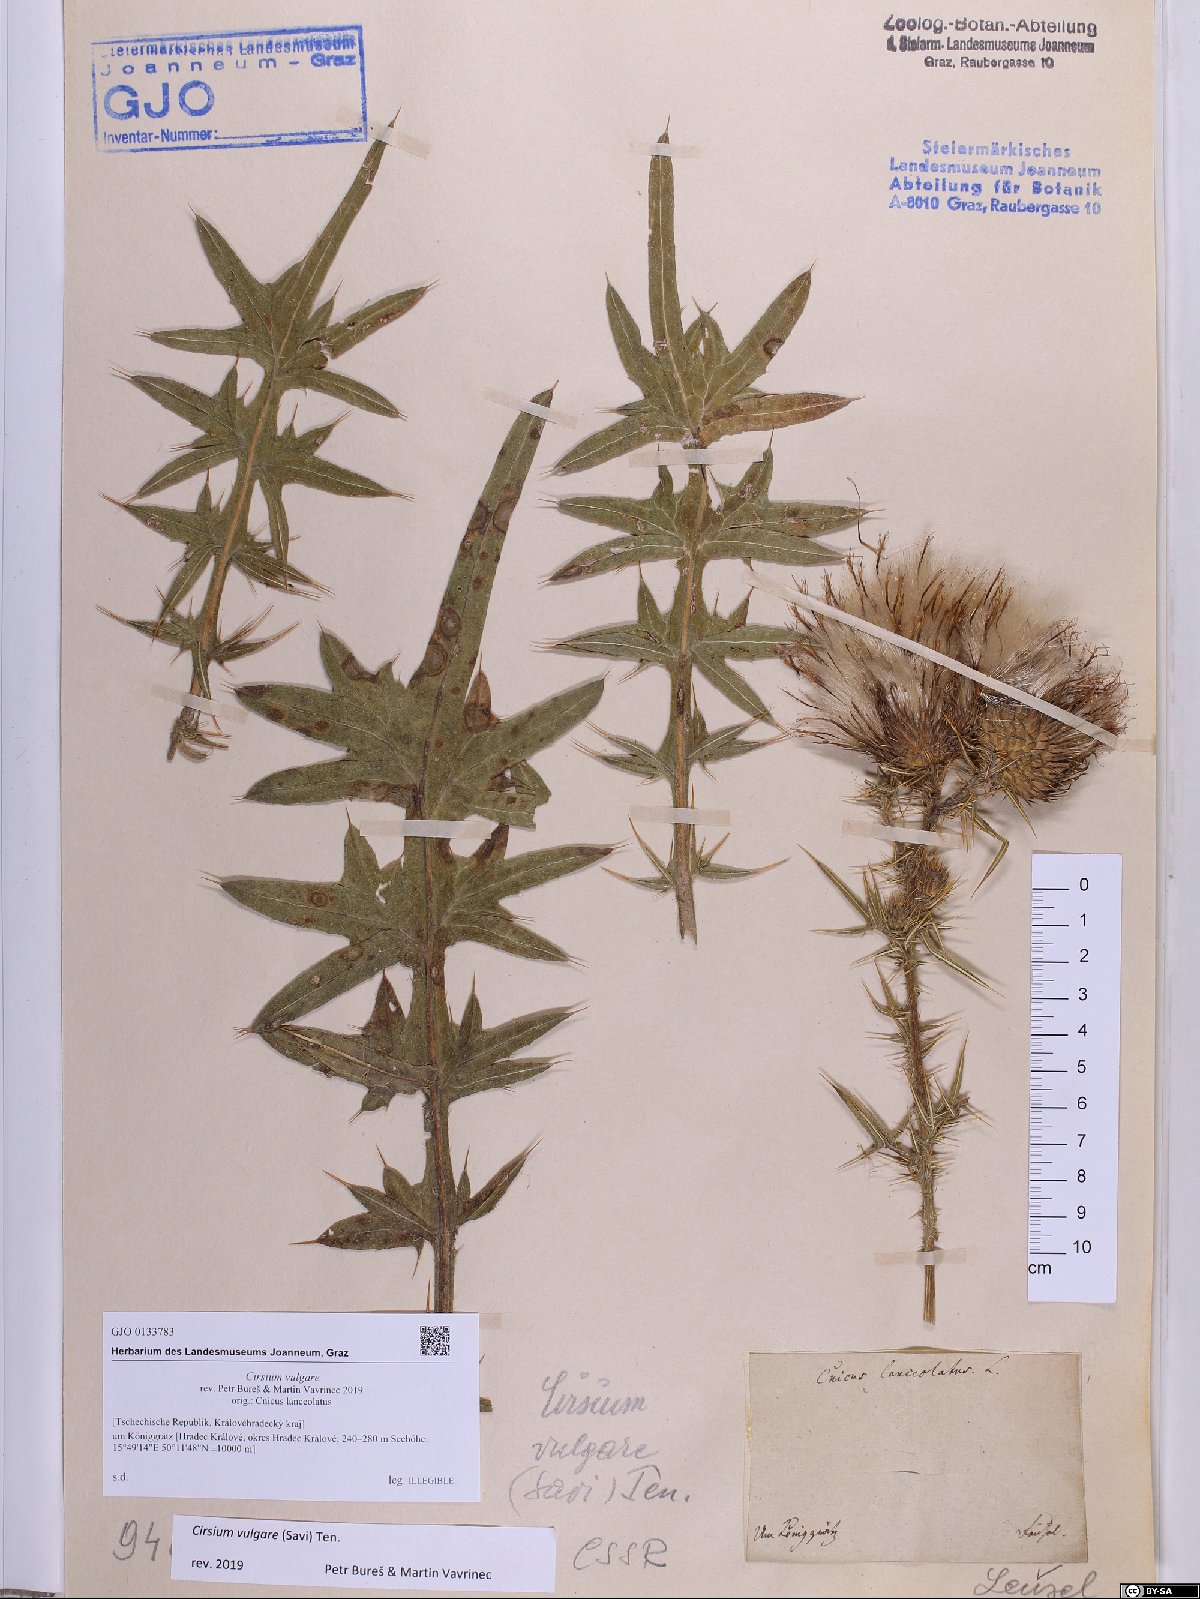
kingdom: Plantae
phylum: Tracheophyta
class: Magnoliopsida
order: Asterales
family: Asteraceae
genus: Cirsium
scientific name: Cirsium vulgare
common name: Bull thistle
